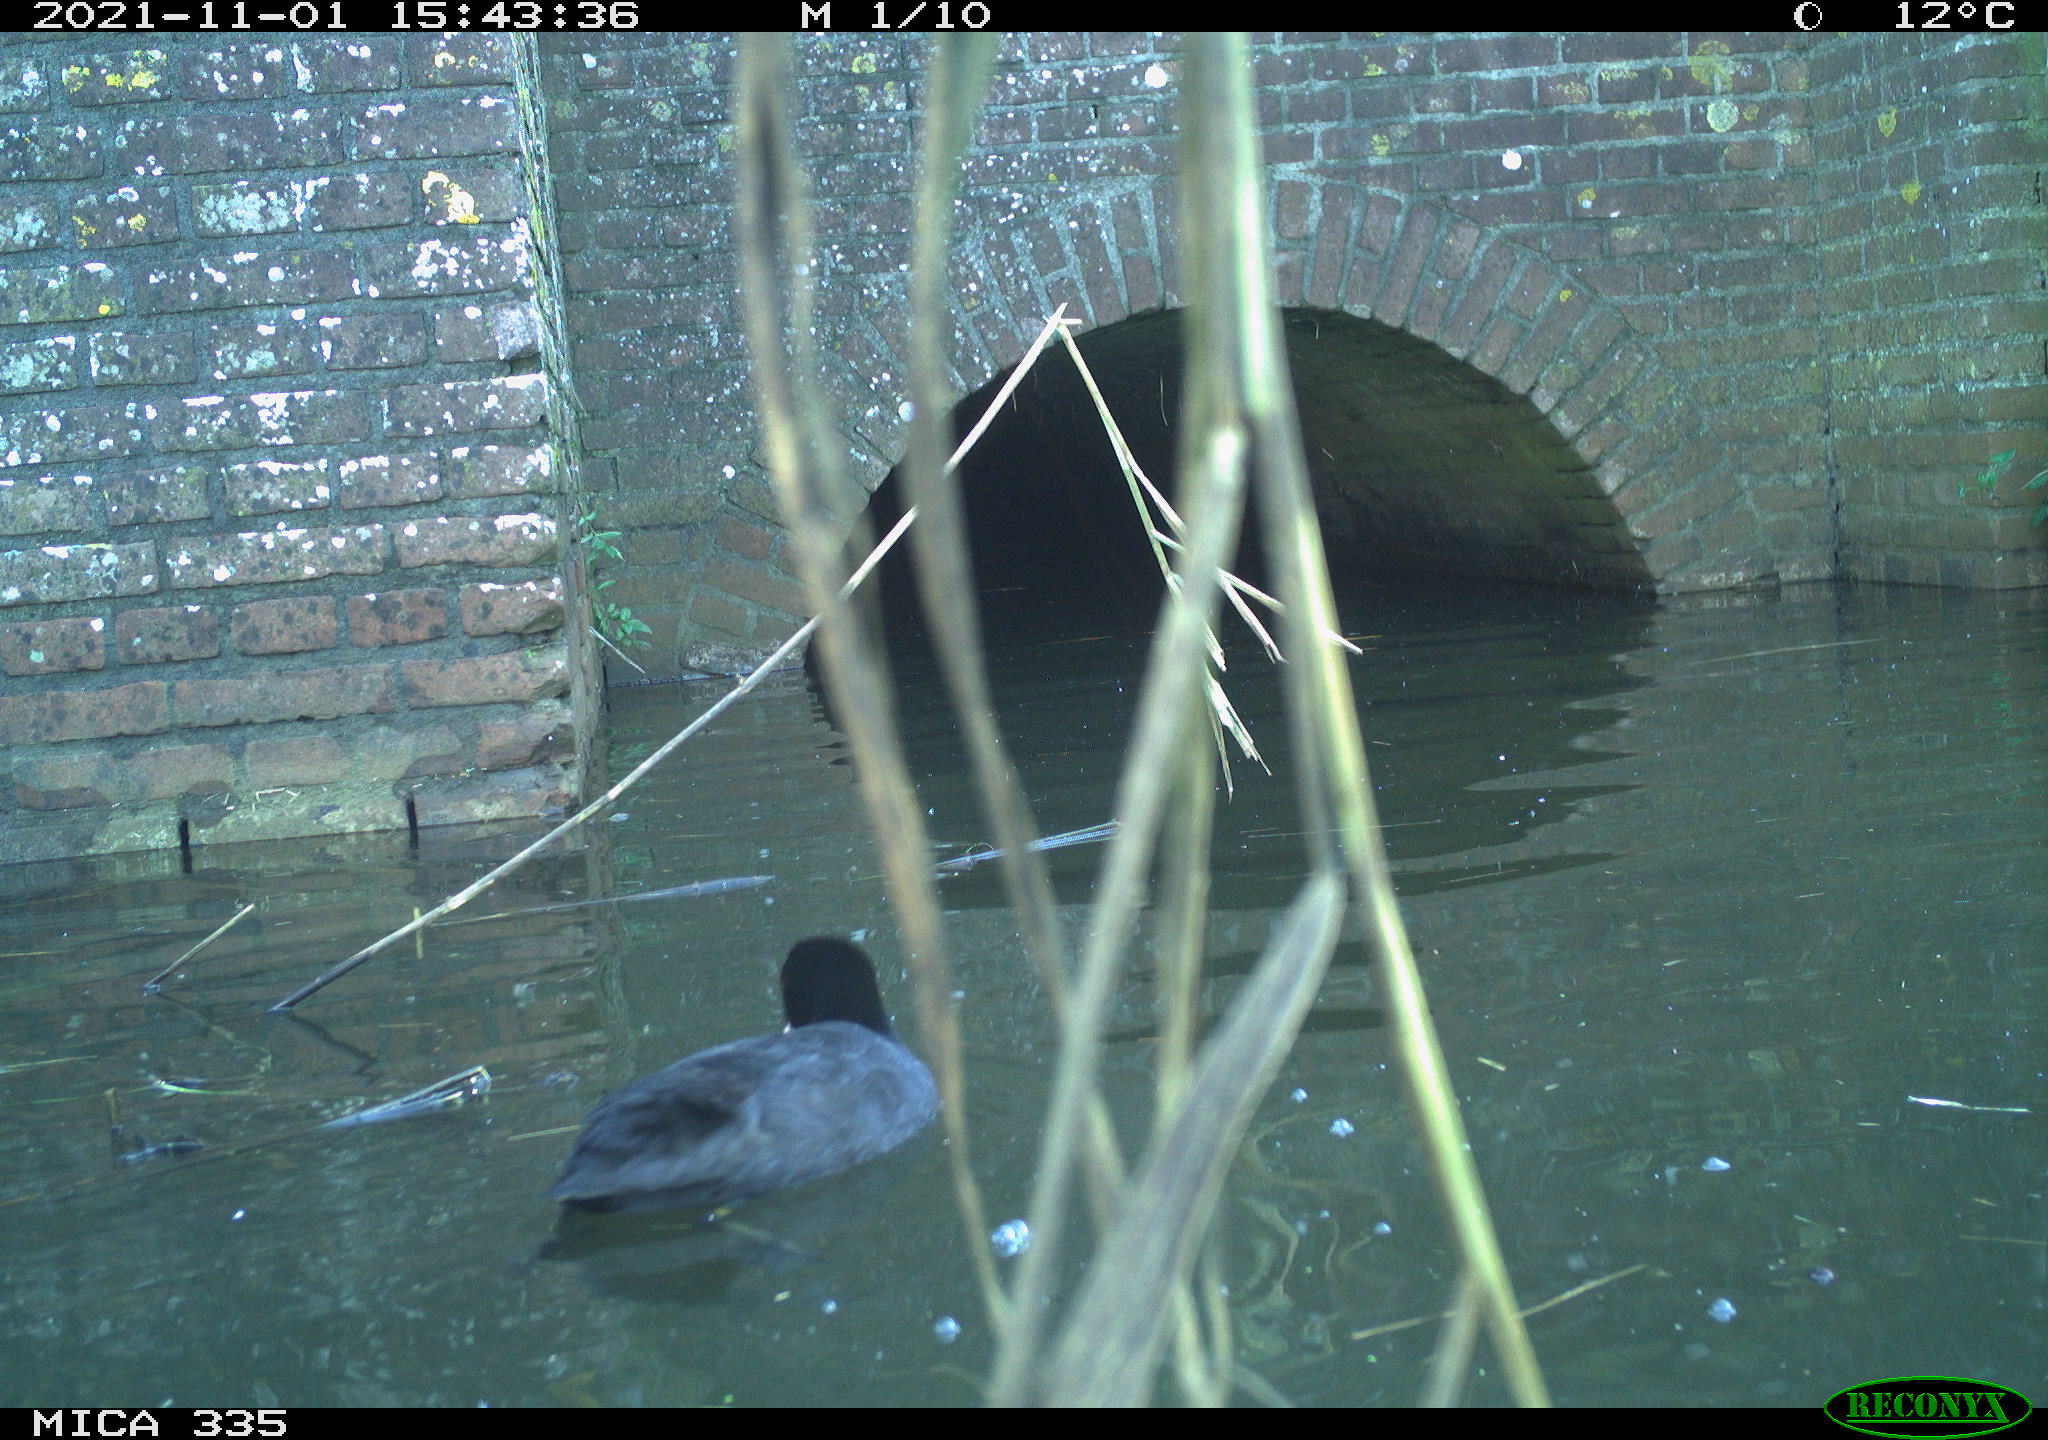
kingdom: Animalia
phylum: Chordata
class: Aves
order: Suliformes
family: Phalacrocoracidae
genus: Phalacrocorax
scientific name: Phalacrocorax carbo
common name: Great cormorant
